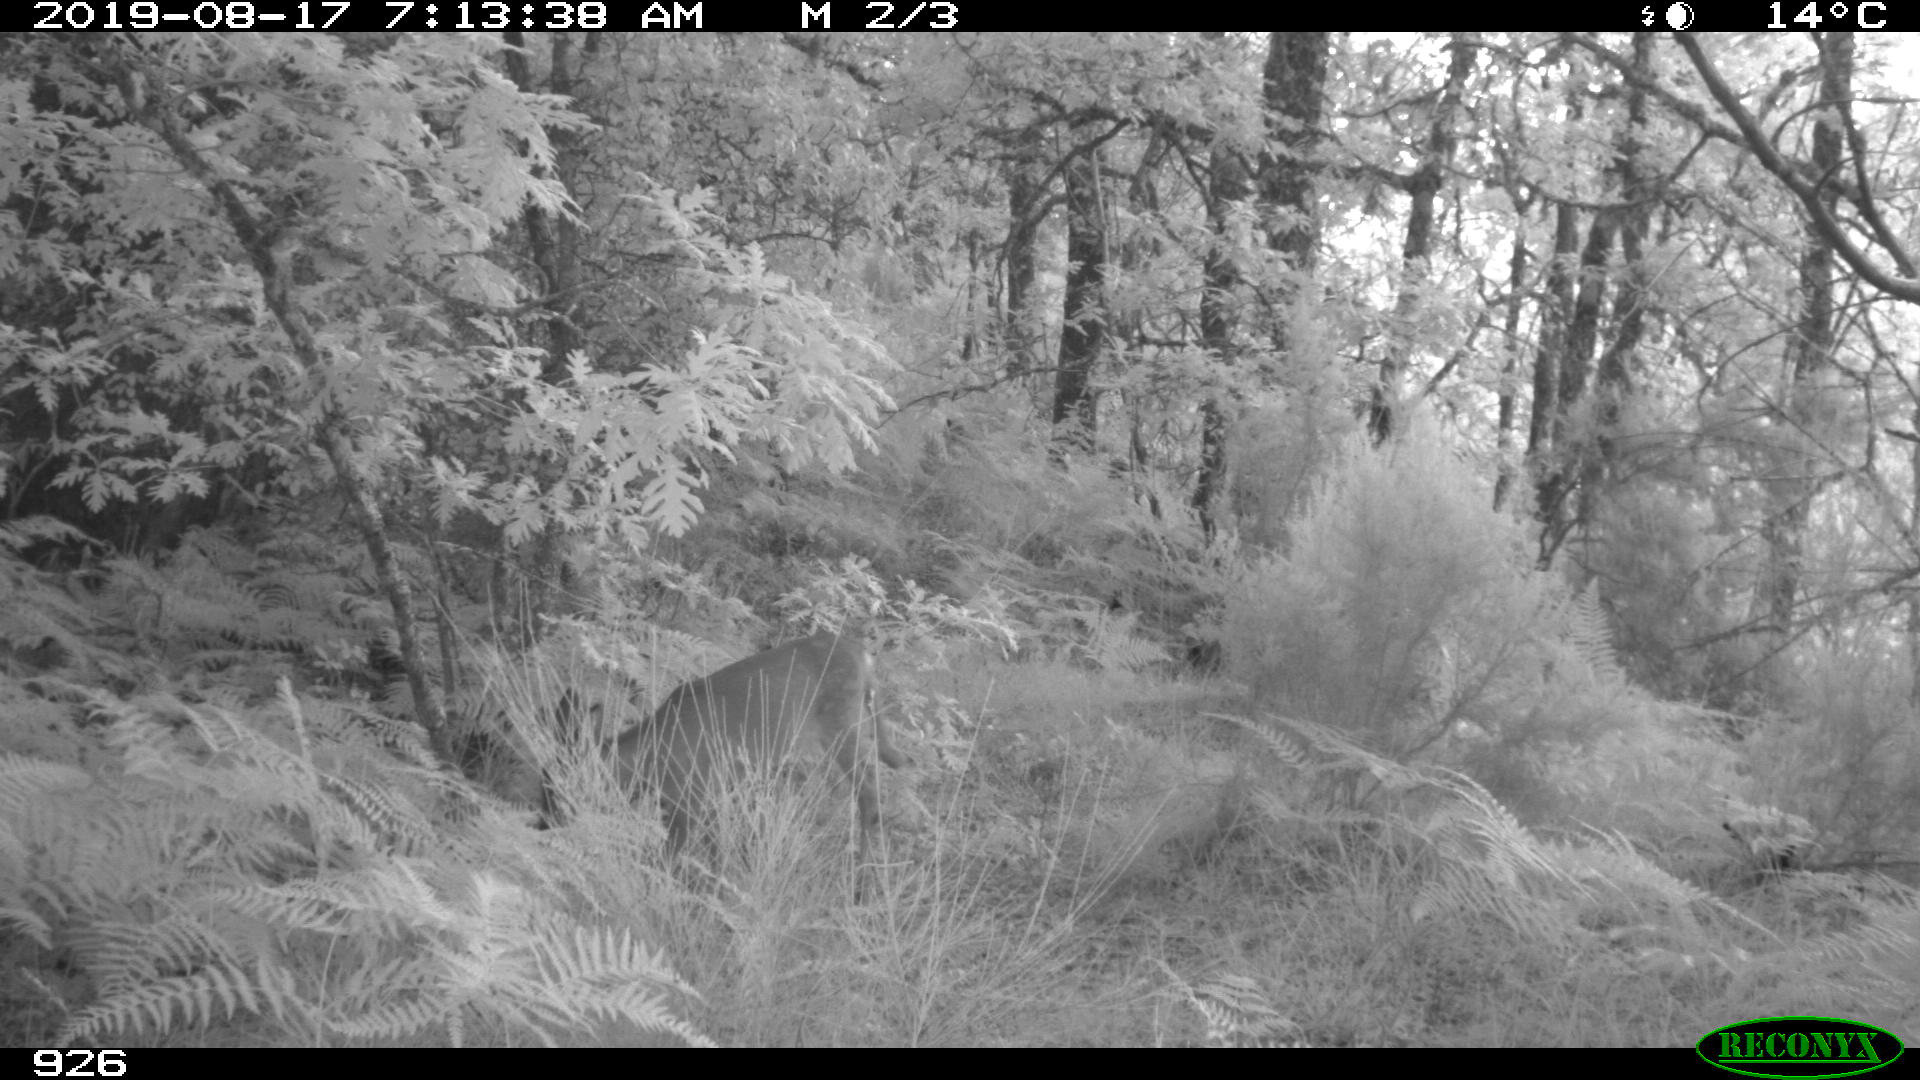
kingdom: Animalia
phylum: Chordata
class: Mammalia
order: Artiodactyla
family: Cervidae
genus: Capreolus
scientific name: Capreolus capreolus
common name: Western roe deer
